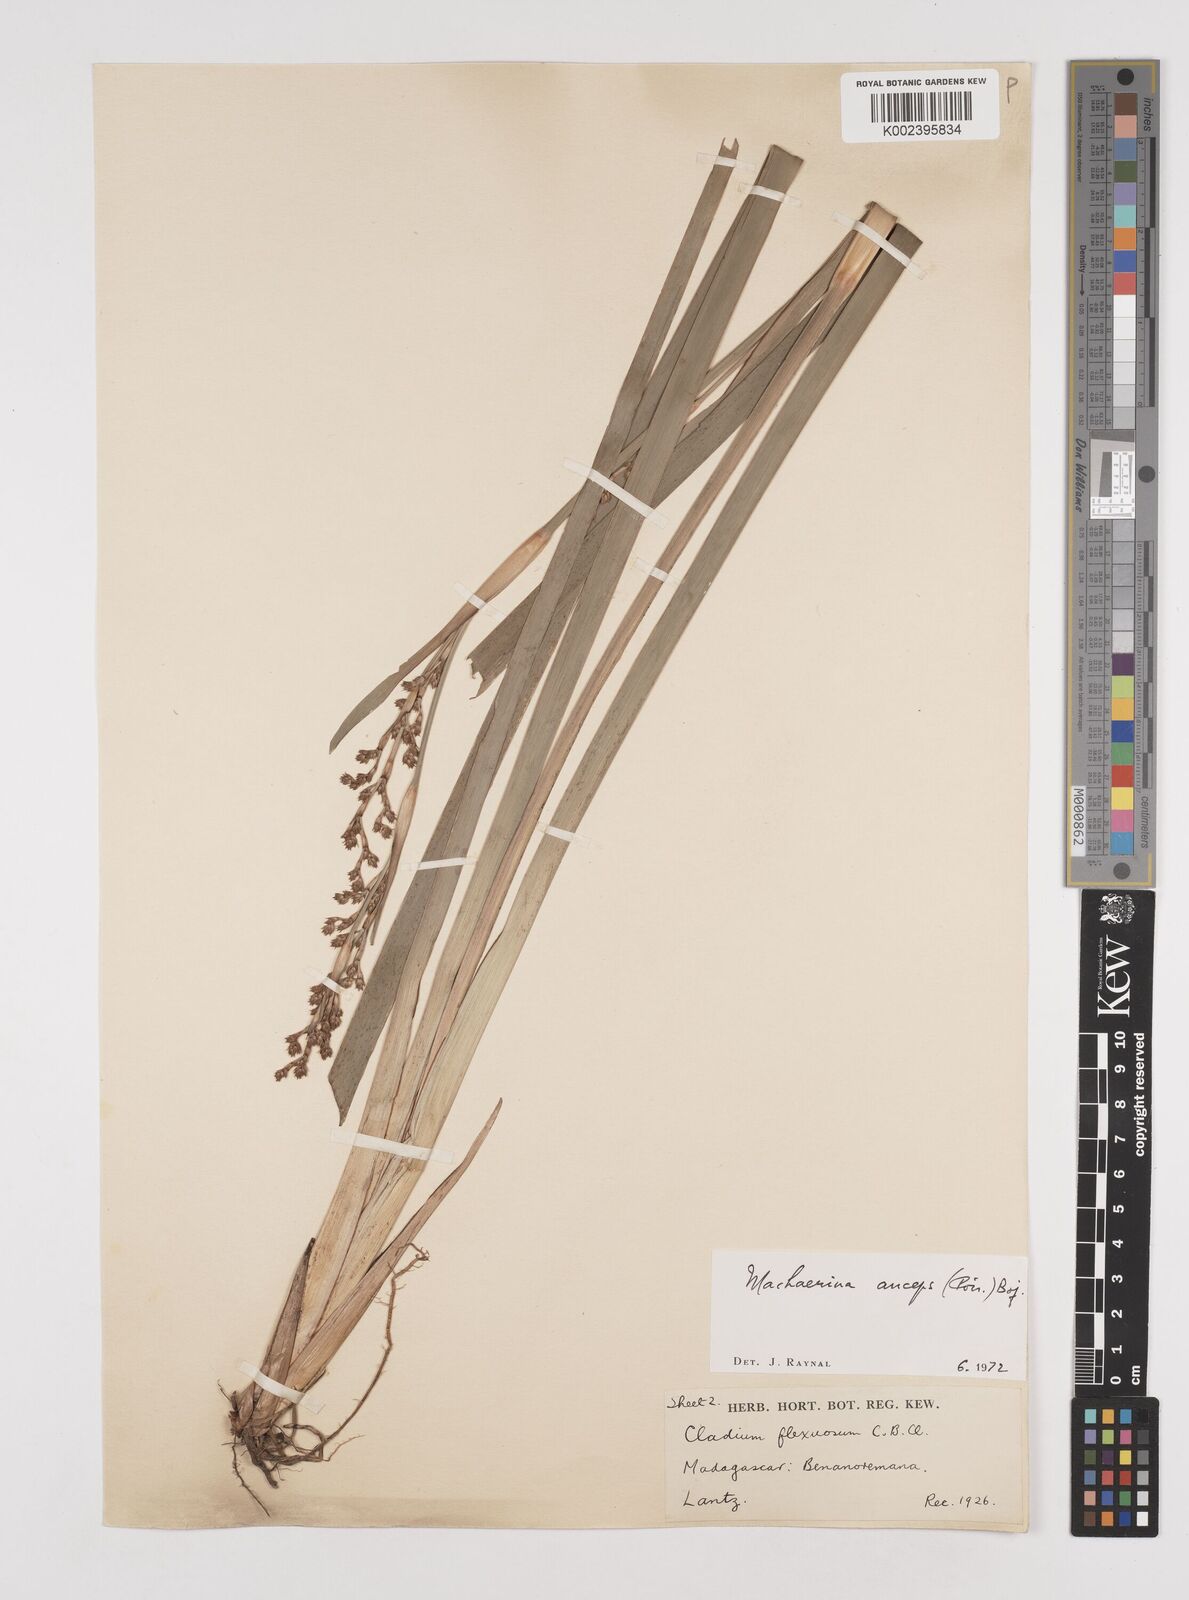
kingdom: Plantae
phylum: Tracheophyta
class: Liliopsida
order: Poales
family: Cyperaceae
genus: Machaerina
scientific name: Machaerina anceps
